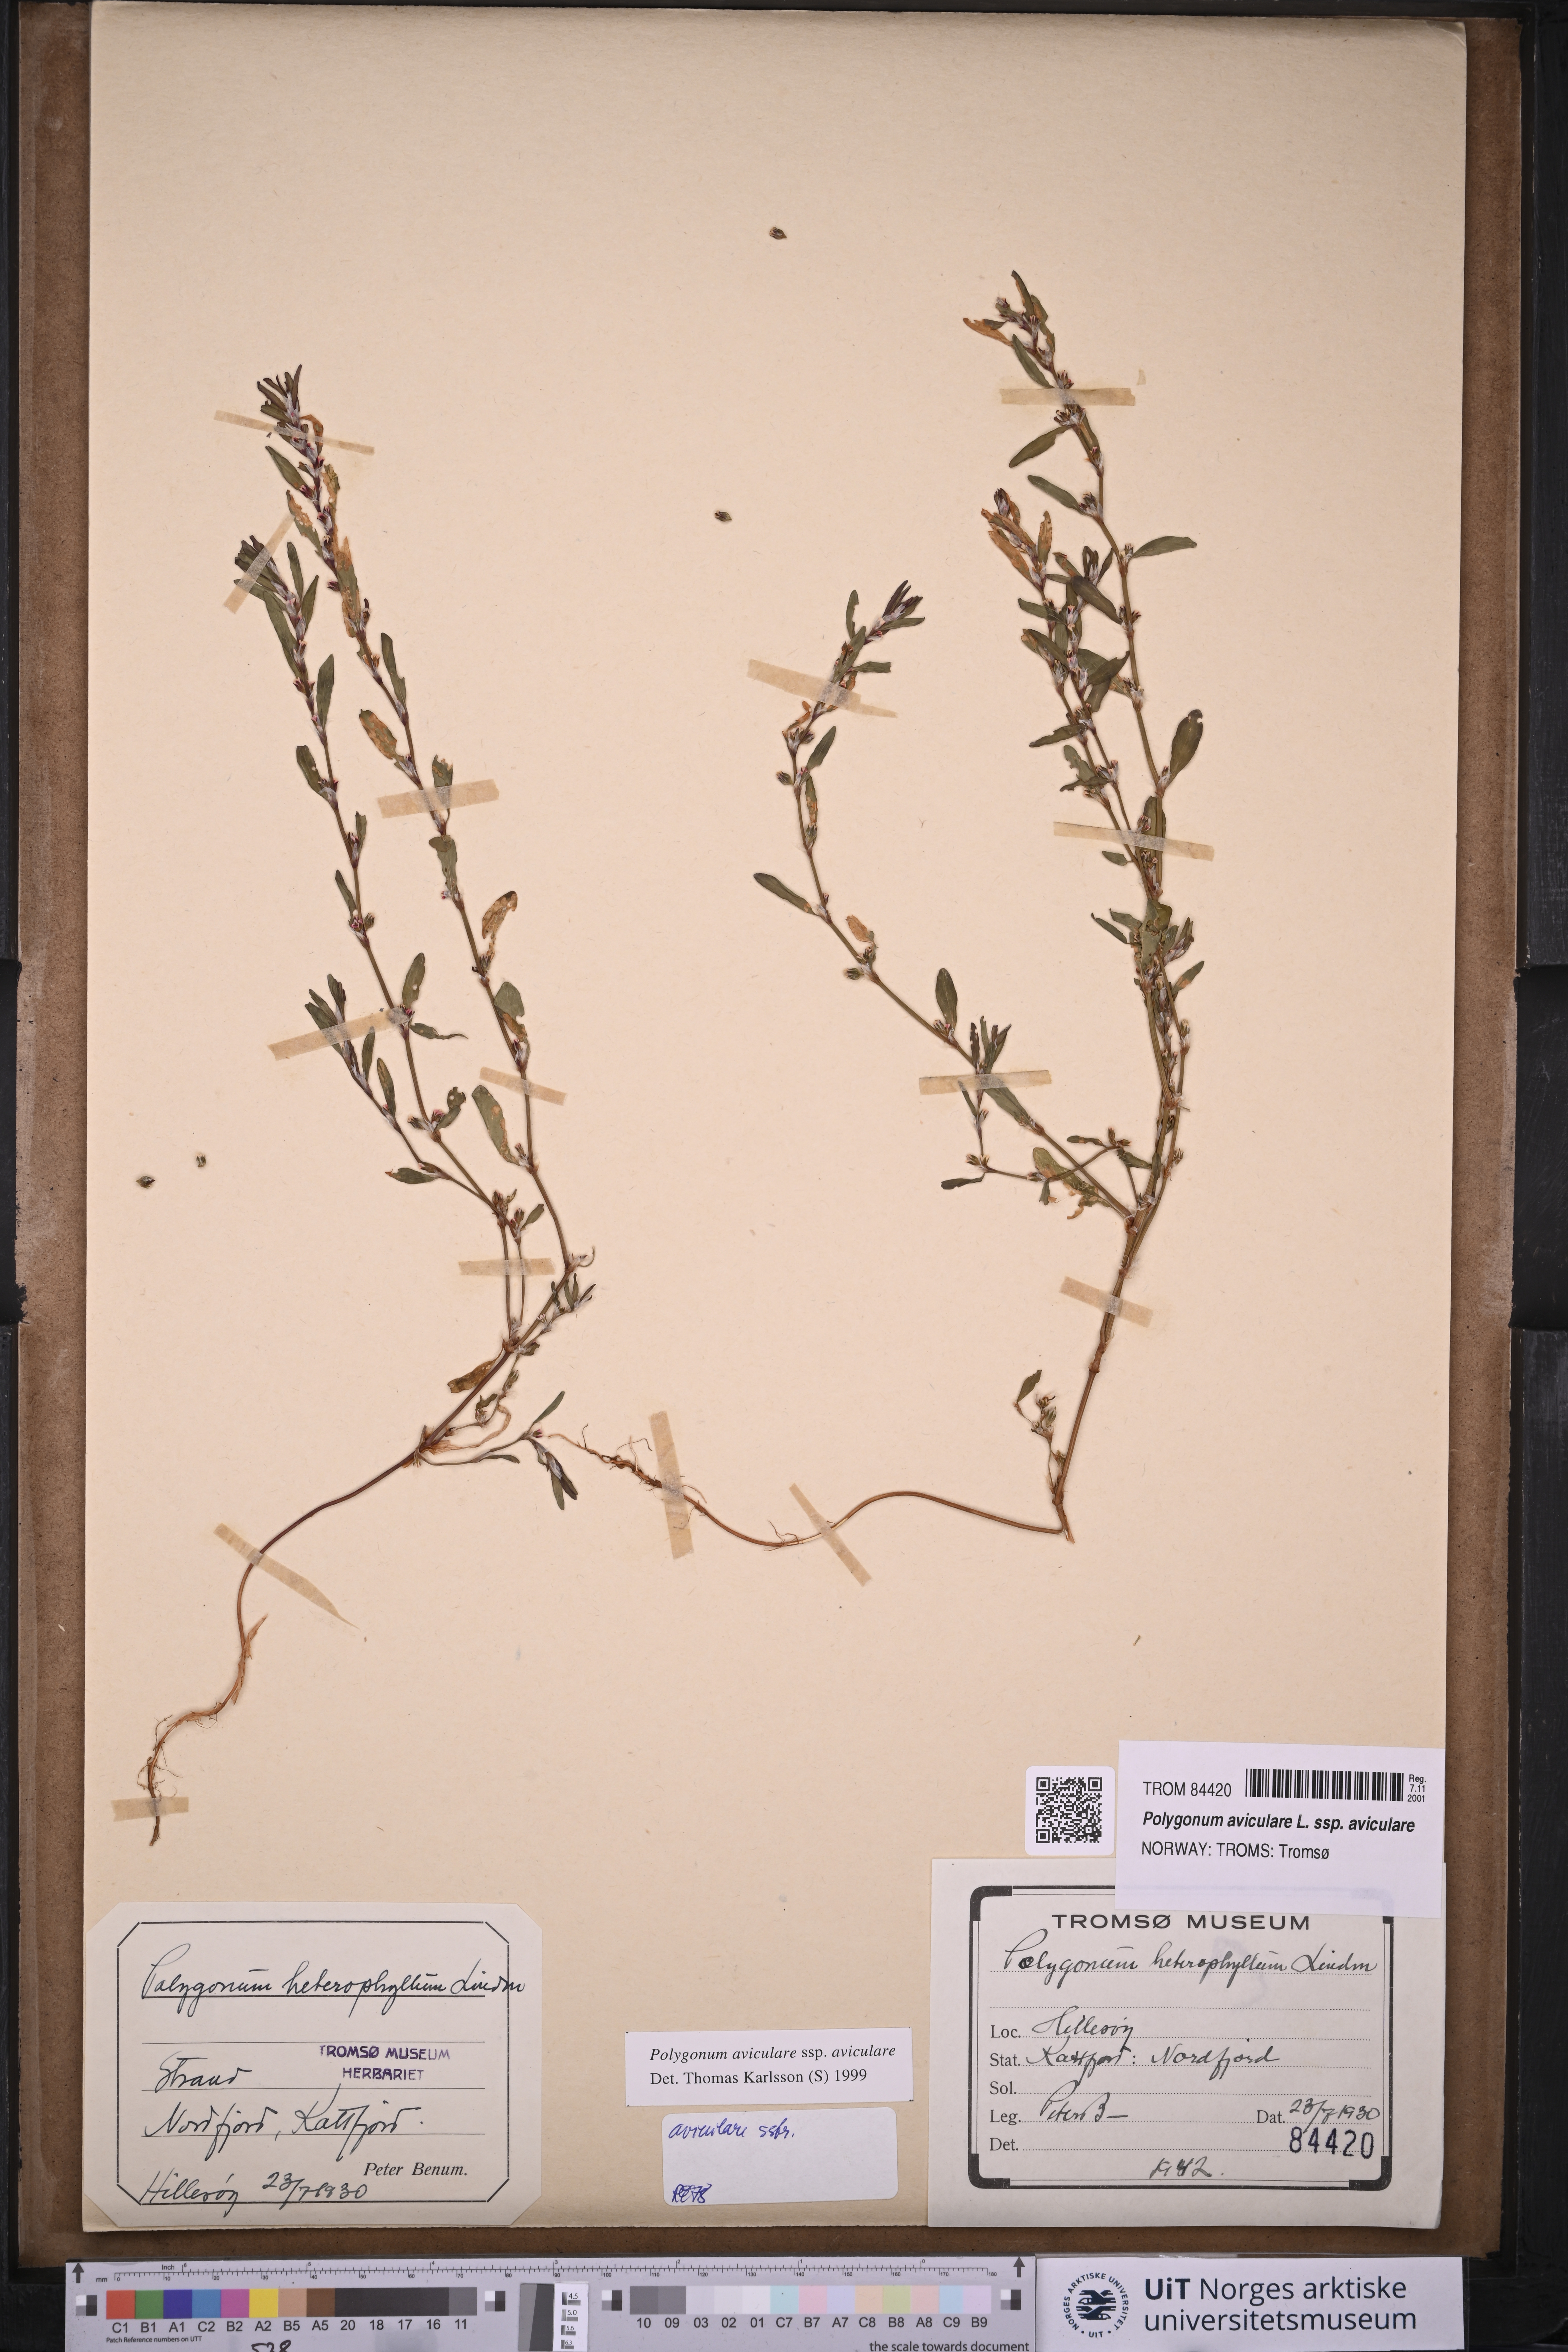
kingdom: Plantae
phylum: Tracheophyta
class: Magnoliopsida
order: Caryophyllales
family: Polygonaceae
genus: Polygonum
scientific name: Polygonum aviculare
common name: Prostrate knotweed
